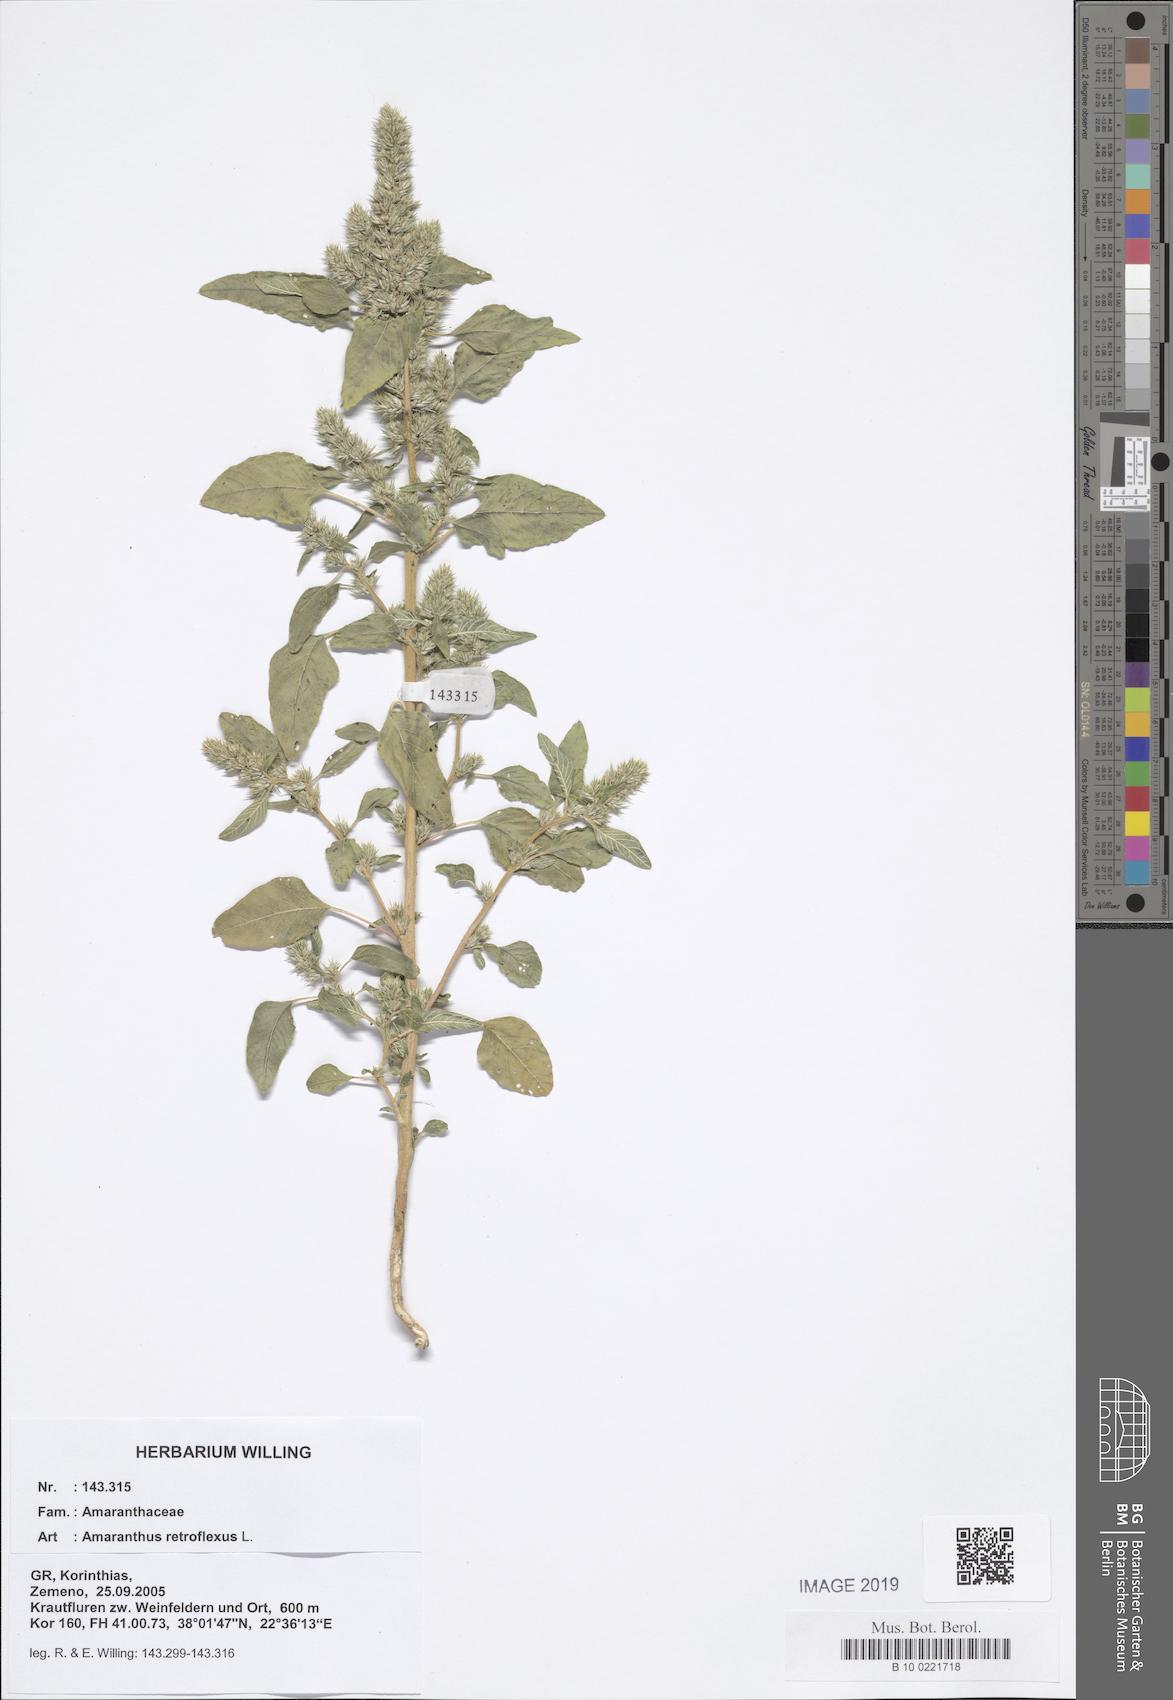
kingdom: Plantae
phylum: Tracheophyta
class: Magnoliopsida
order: Caryophyllales
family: Amaranthaceae
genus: Amaranthus
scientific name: Amaranthus retroflexus
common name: Redroot amaranth
